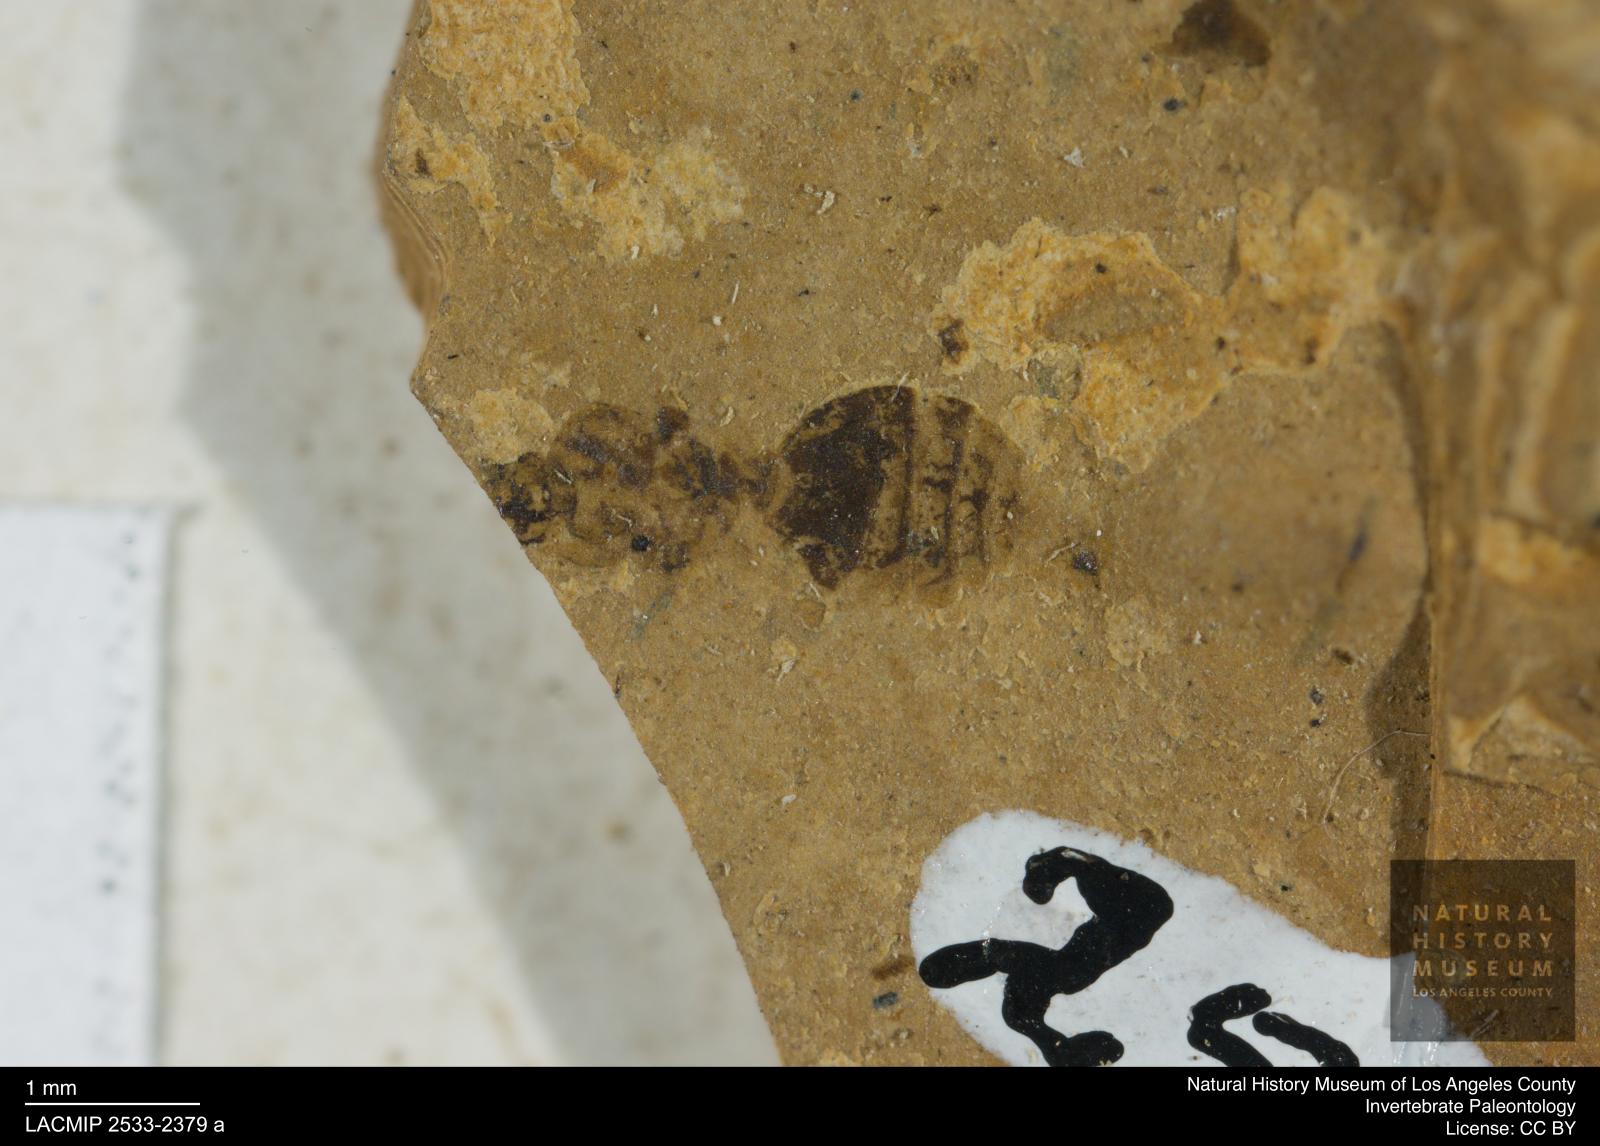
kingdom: Animalia
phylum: Arthropoda
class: Insecta
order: Hymenoptera
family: Formicidae
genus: Formica
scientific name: Formica
